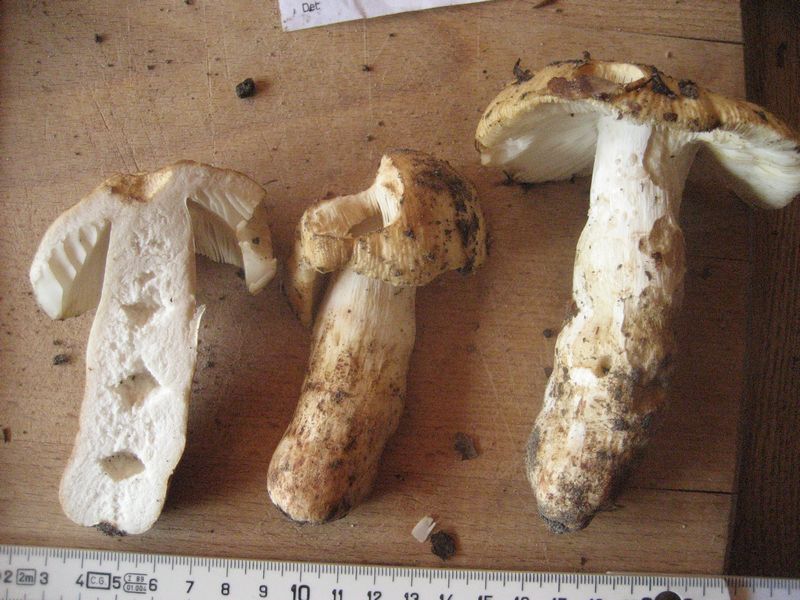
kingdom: Fungi
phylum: Basidiomycota
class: Agaricomycetes
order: Russulales
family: Russulaceae
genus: Russula
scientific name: Russula grata
